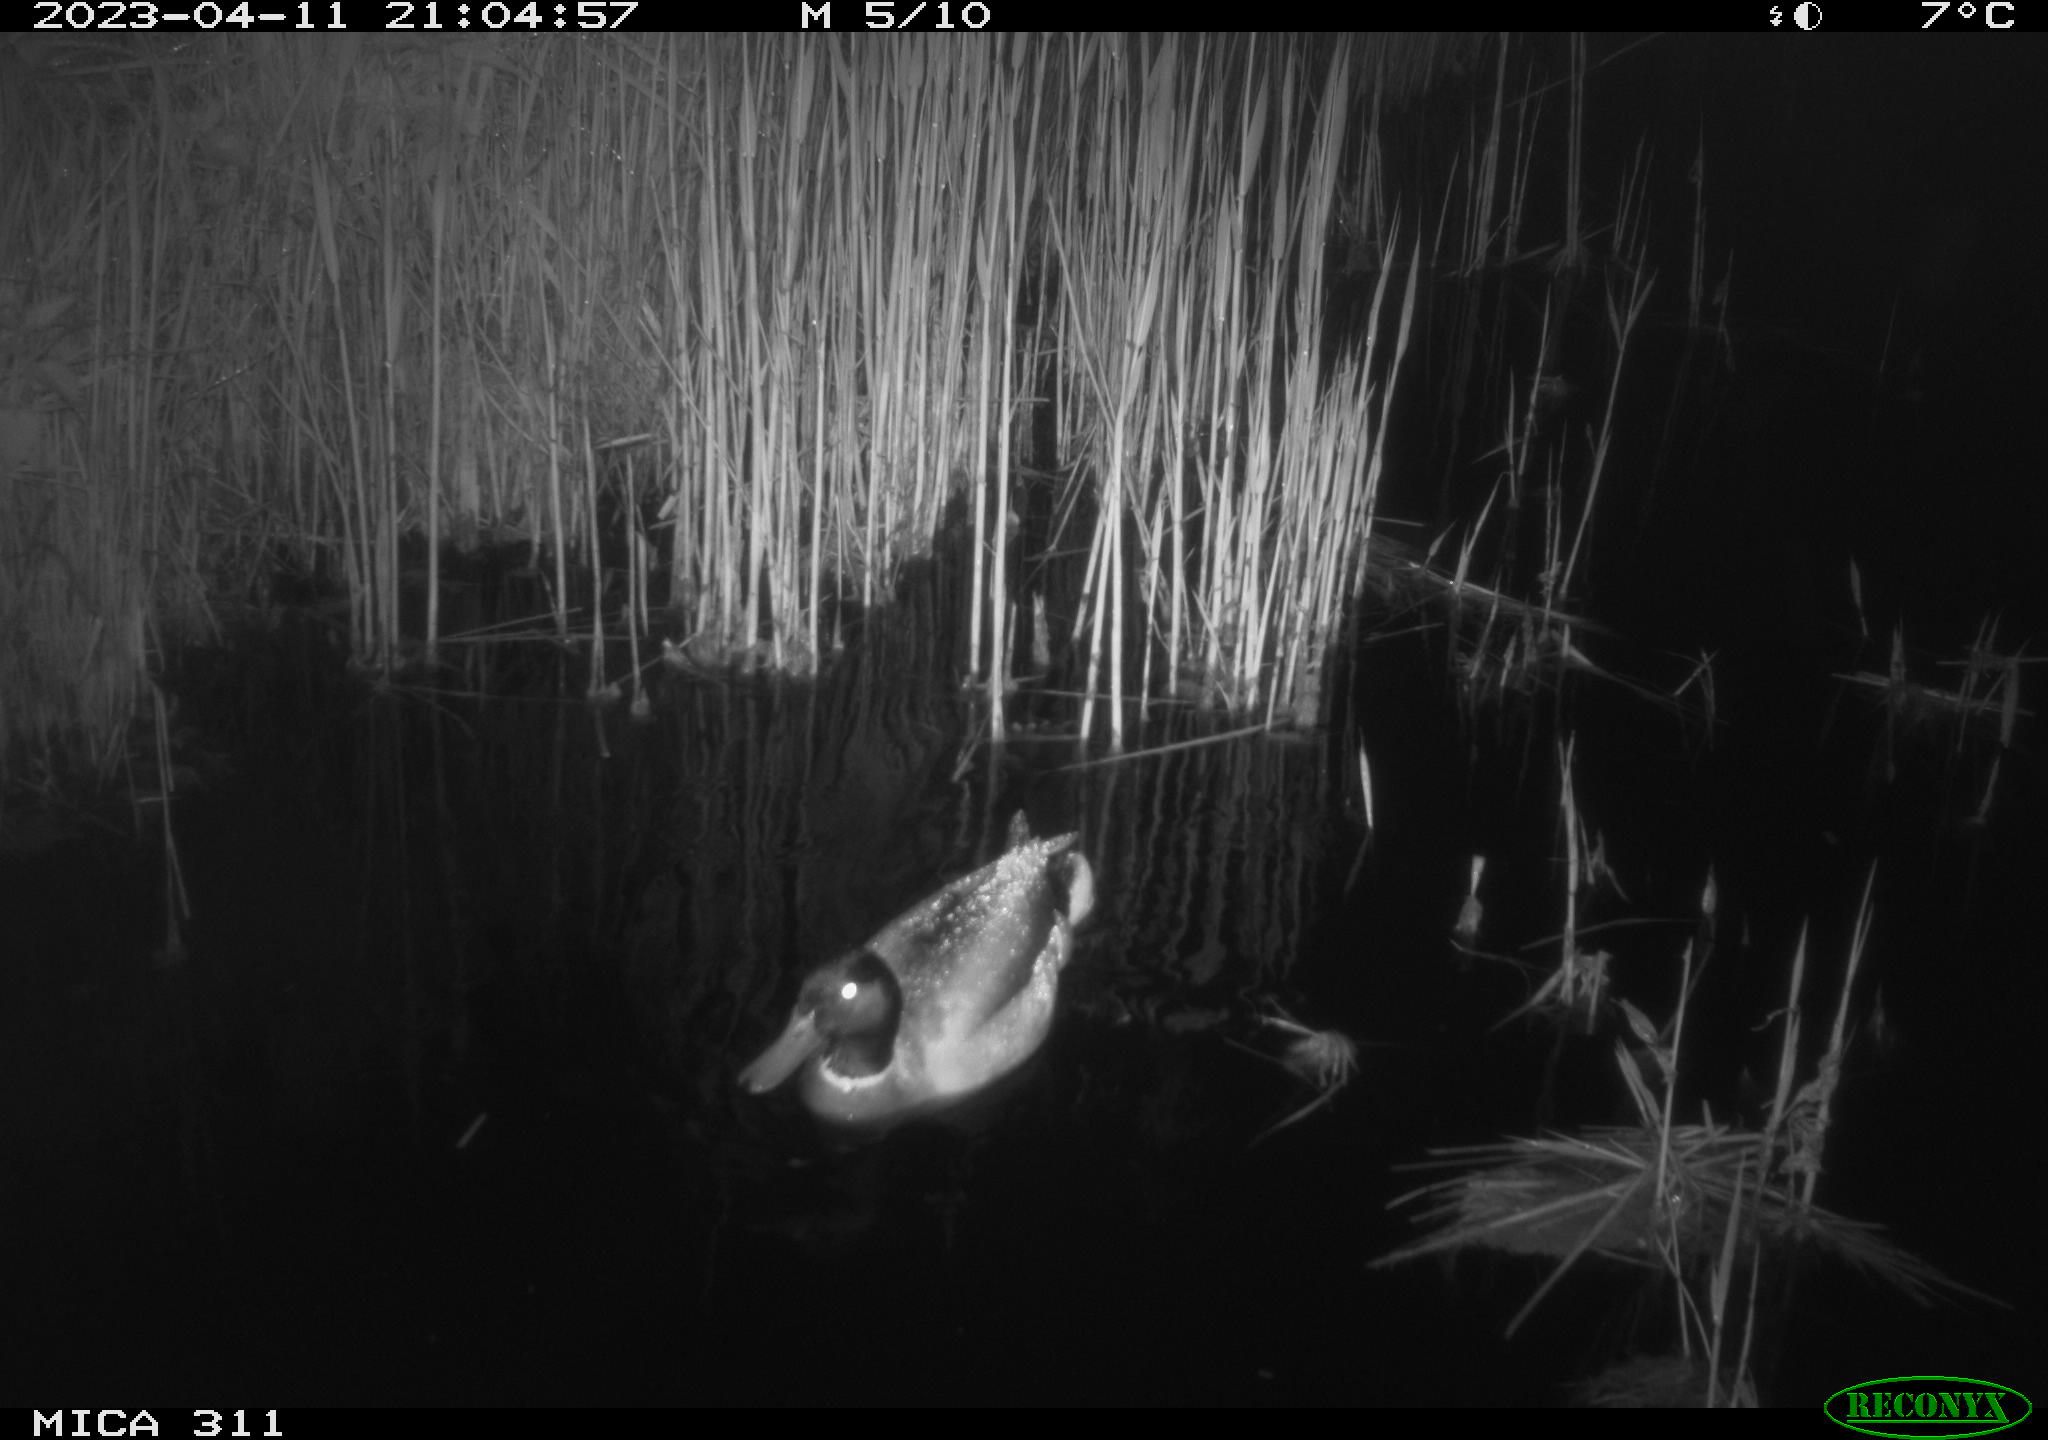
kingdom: Animalia
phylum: Chordata
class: Aves
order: Anseriformes
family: Anatidae
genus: Anas
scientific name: Anas
